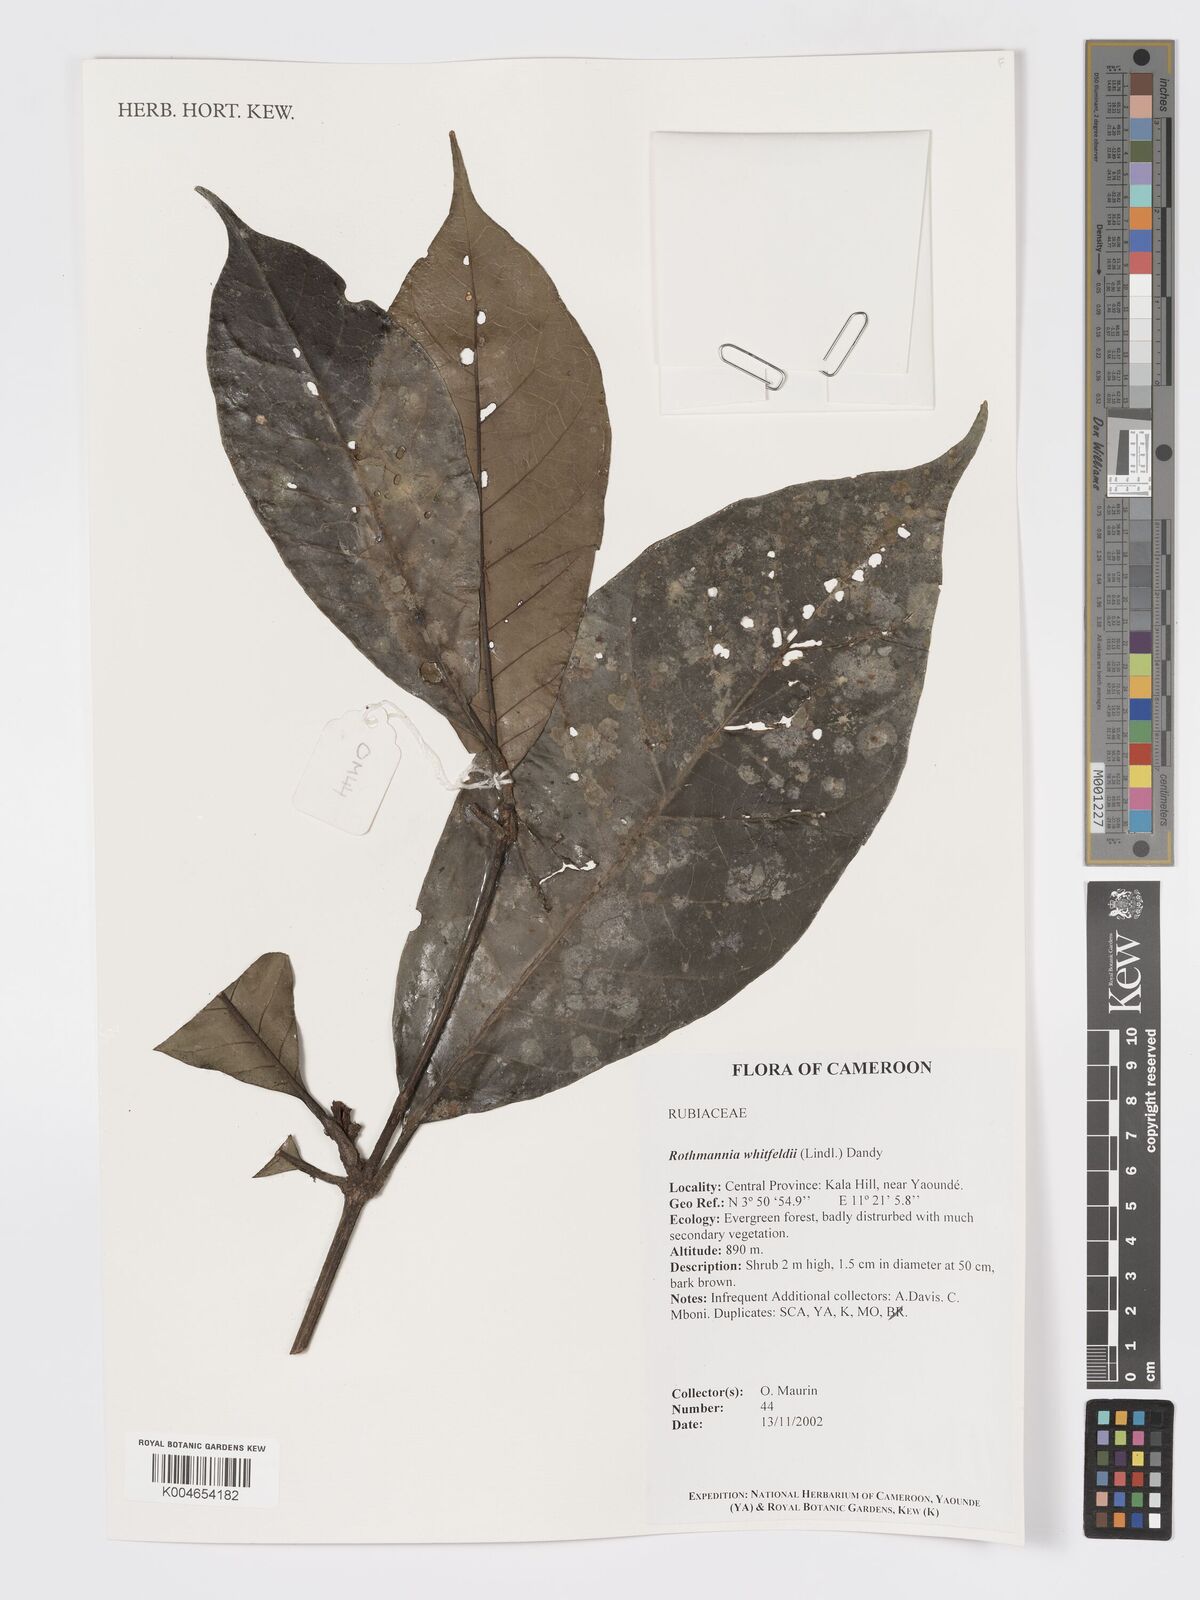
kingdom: Plantae
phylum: Tracheophyta
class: Magnoliopsida
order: Gentianales
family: Rubiaceae
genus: Rothmannia
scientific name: Rothmannia whitfieldii
